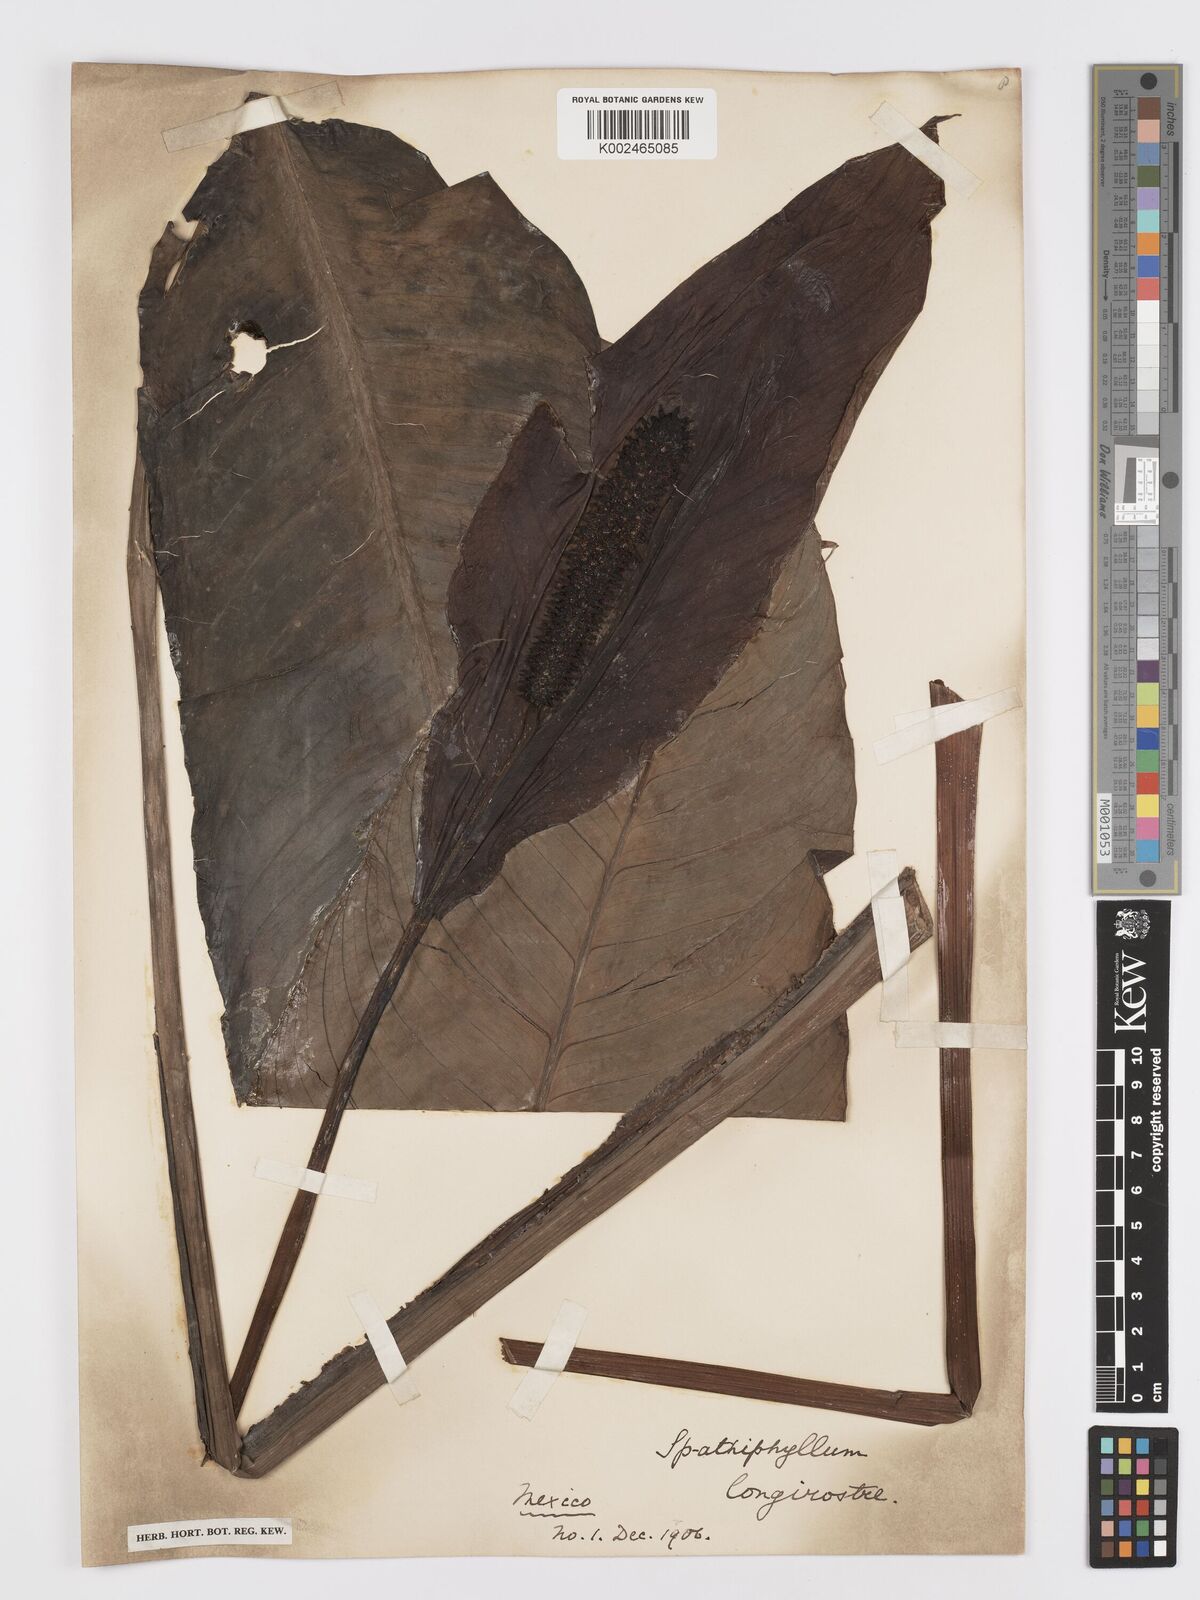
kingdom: Plantae
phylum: Tracheophyta
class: Liliopsida
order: Alismatales
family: Araceae
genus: Spathiphyllum
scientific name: Spathiphyllum cochlearispathum
